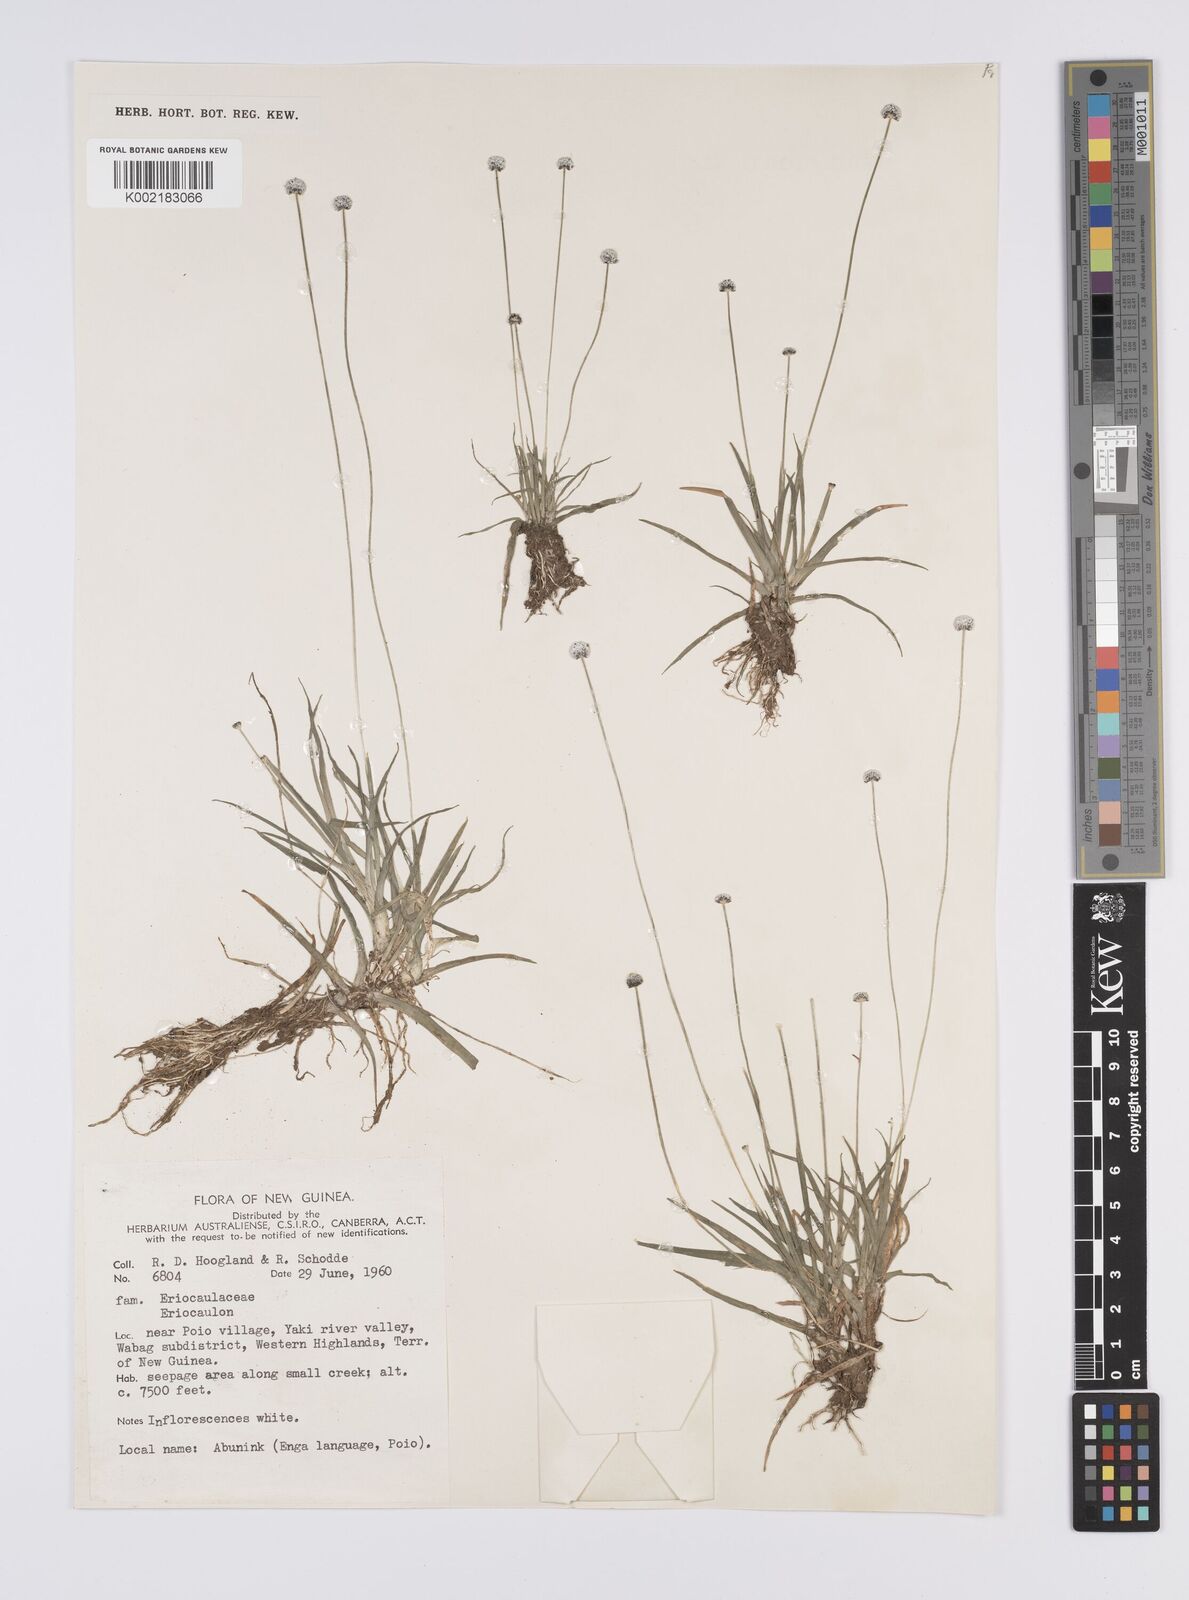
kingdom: Plantae
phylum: Tracheophyta
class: Liliopsida
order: Poales
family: Eriocaulaceae
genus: Eriocaulon
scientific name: Eriocaulon
